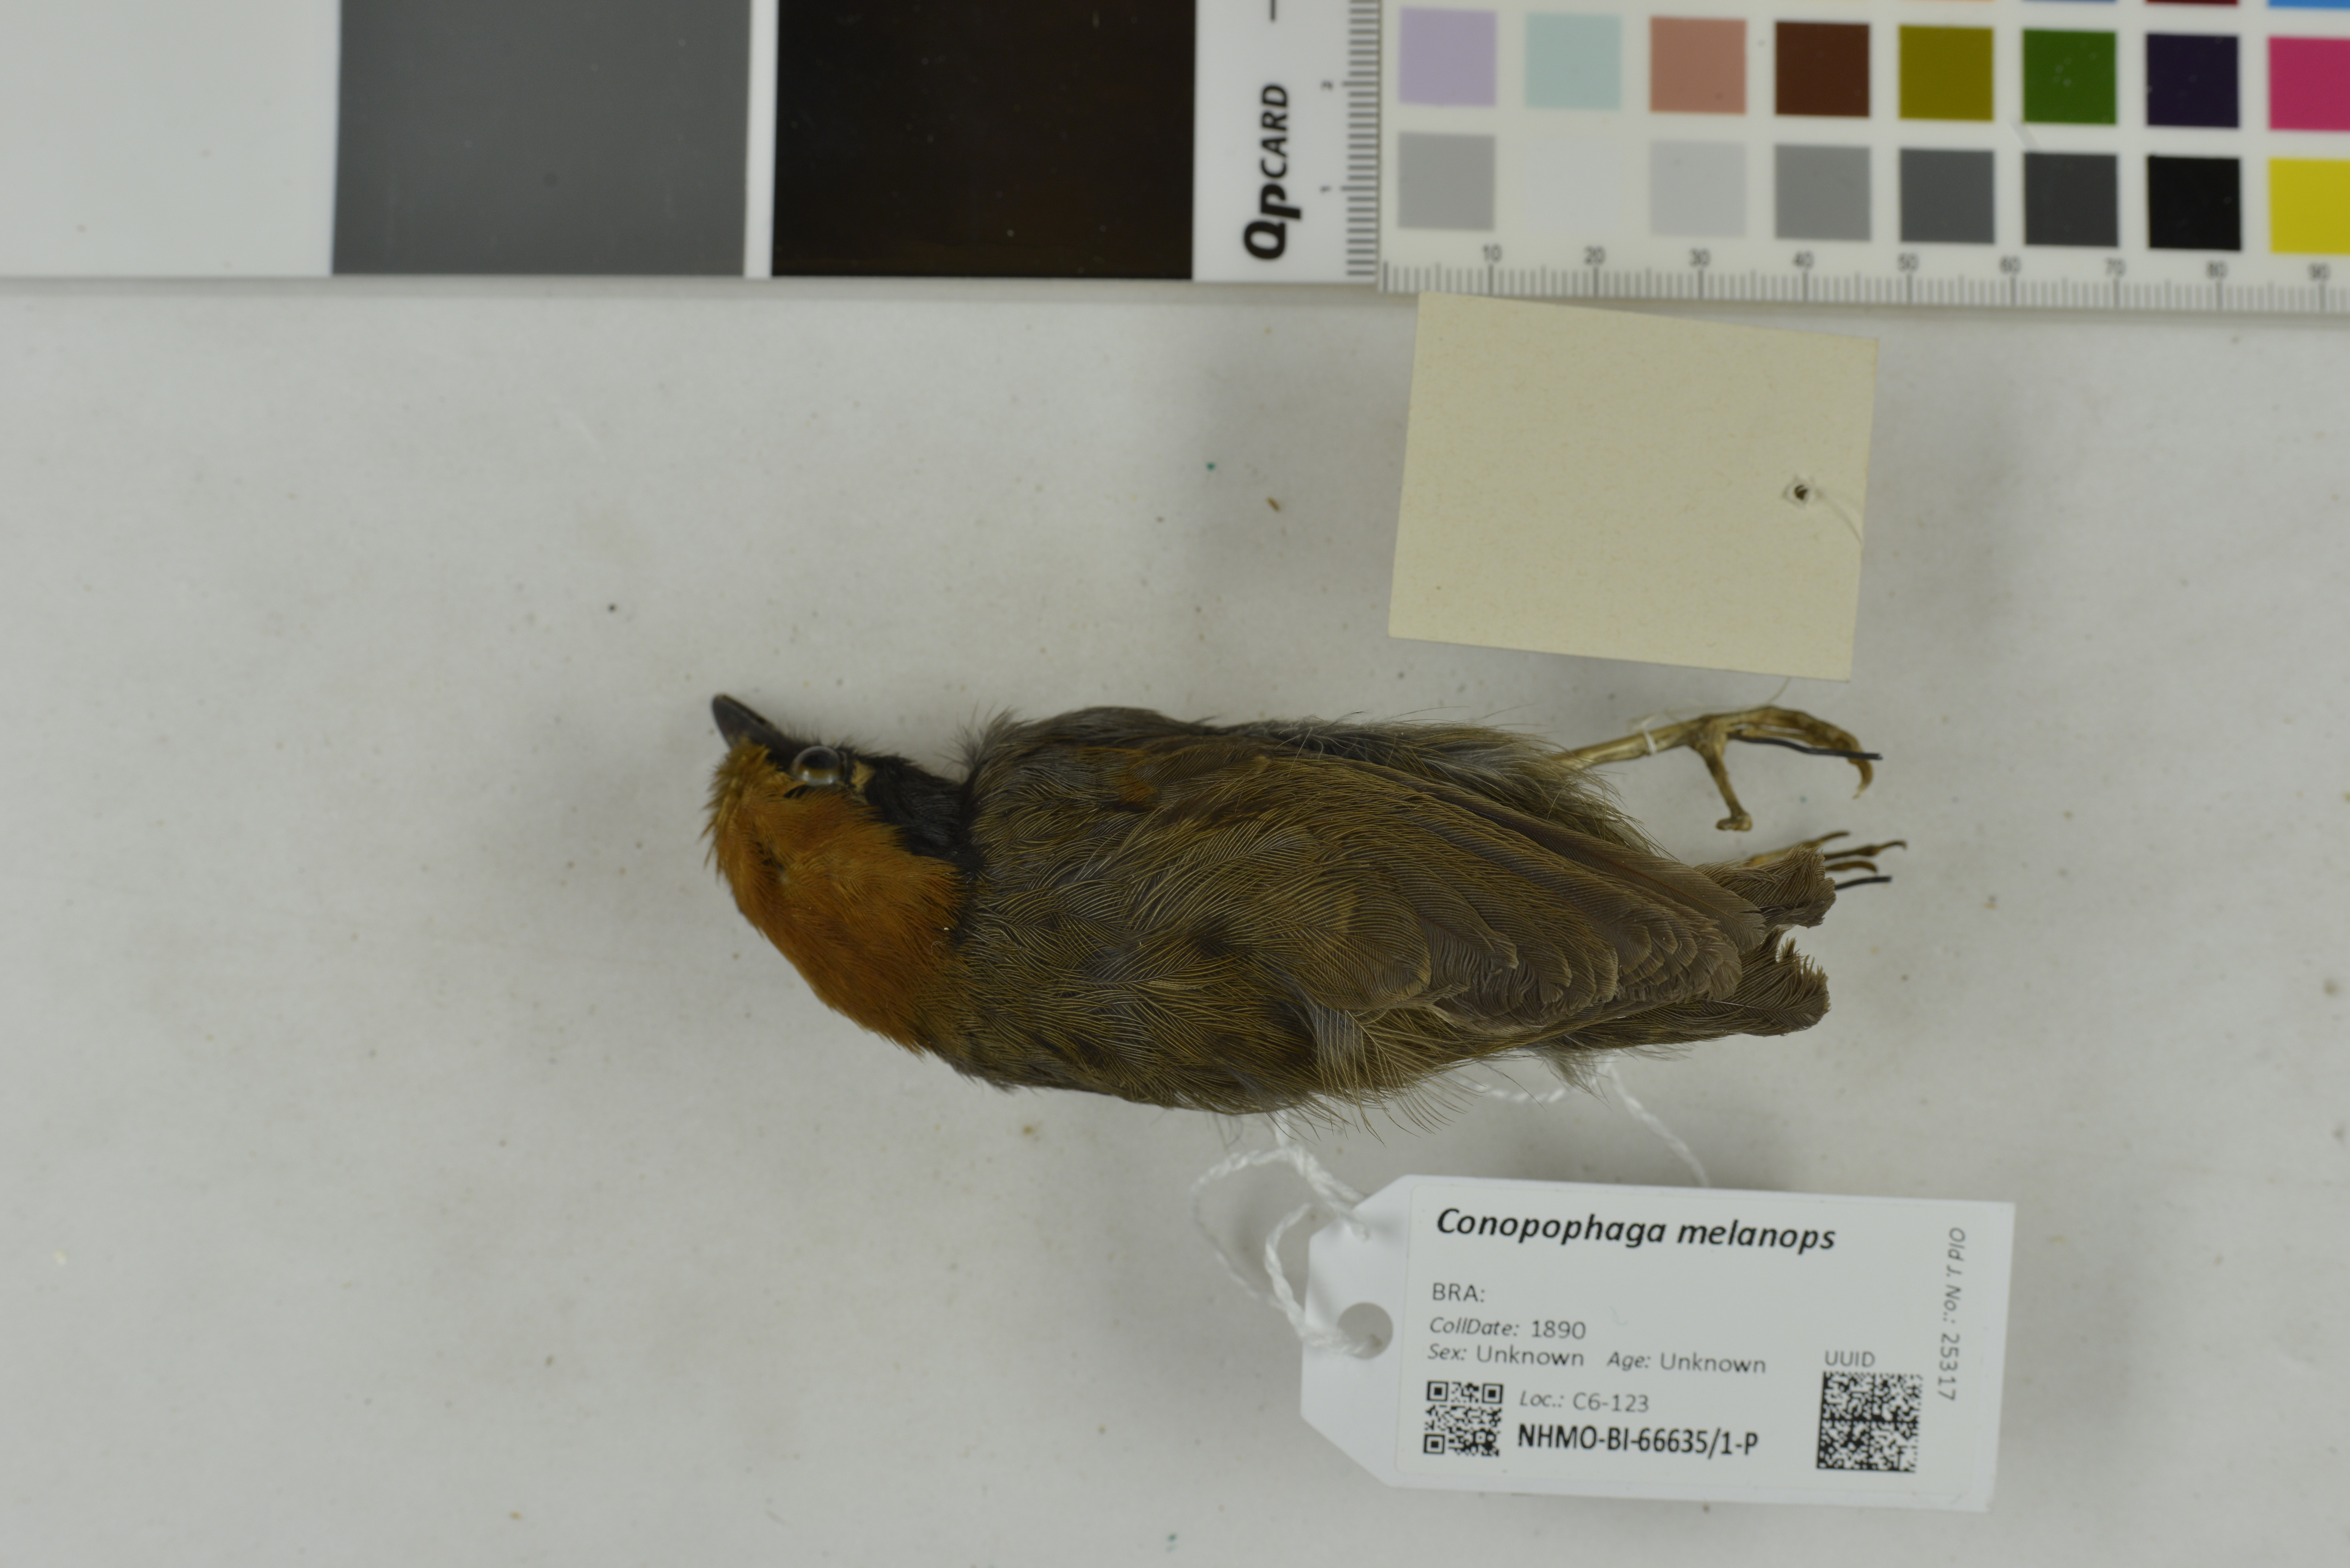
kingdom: Animalia
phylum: Chordata
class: Aves
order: Passeriformes
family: Conopophagidae
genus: Conopophaga
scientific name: Conopophaga melanops
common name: Black-cheeked gnateater
